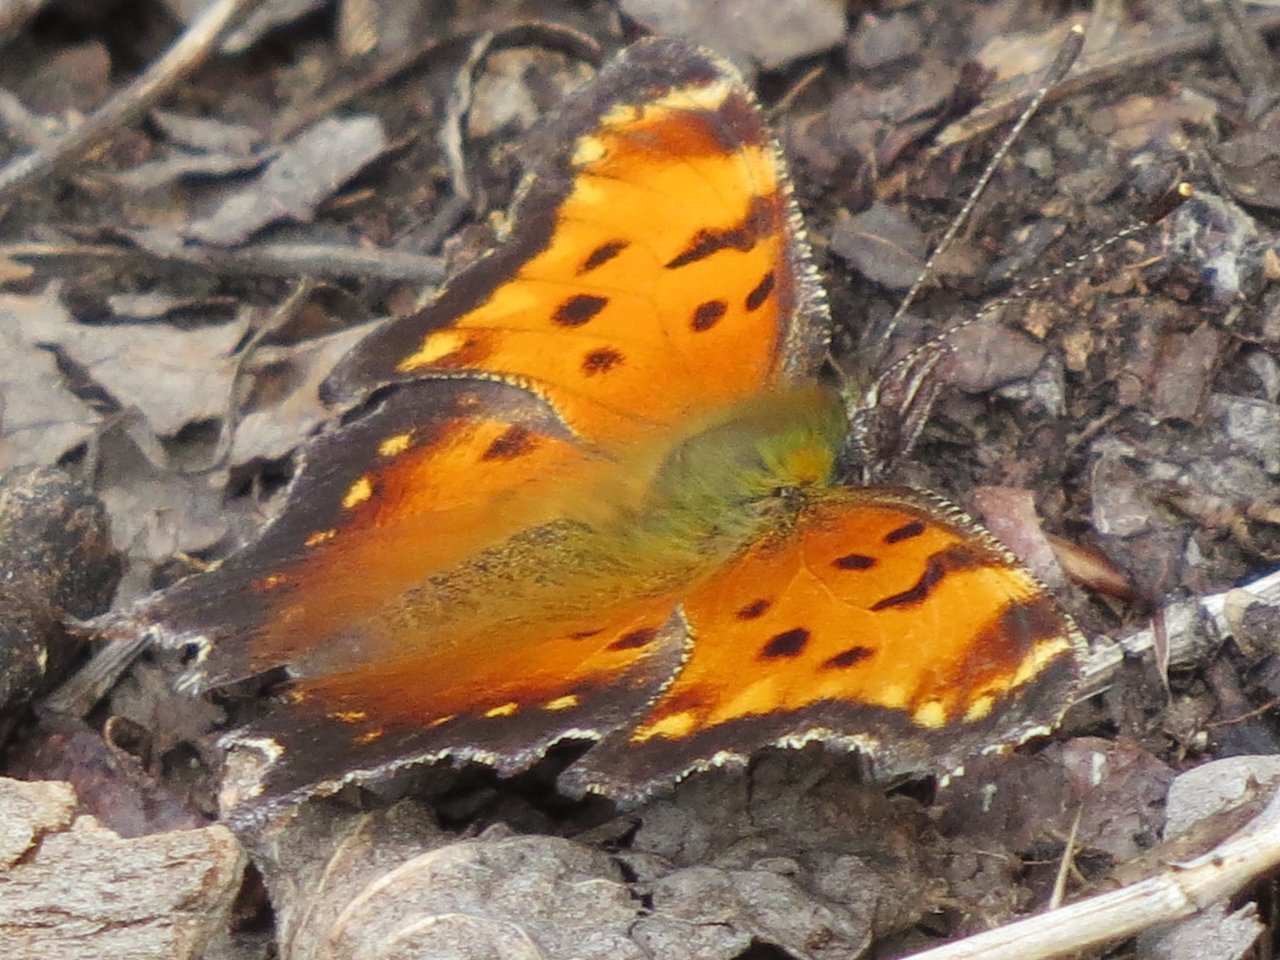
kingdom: Animalia
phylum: Arthropoda
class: Insecta
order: Lepidoptera
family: Nymphalidae
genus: Polygonia
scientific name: Polygonia progne
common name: Gray Comma
